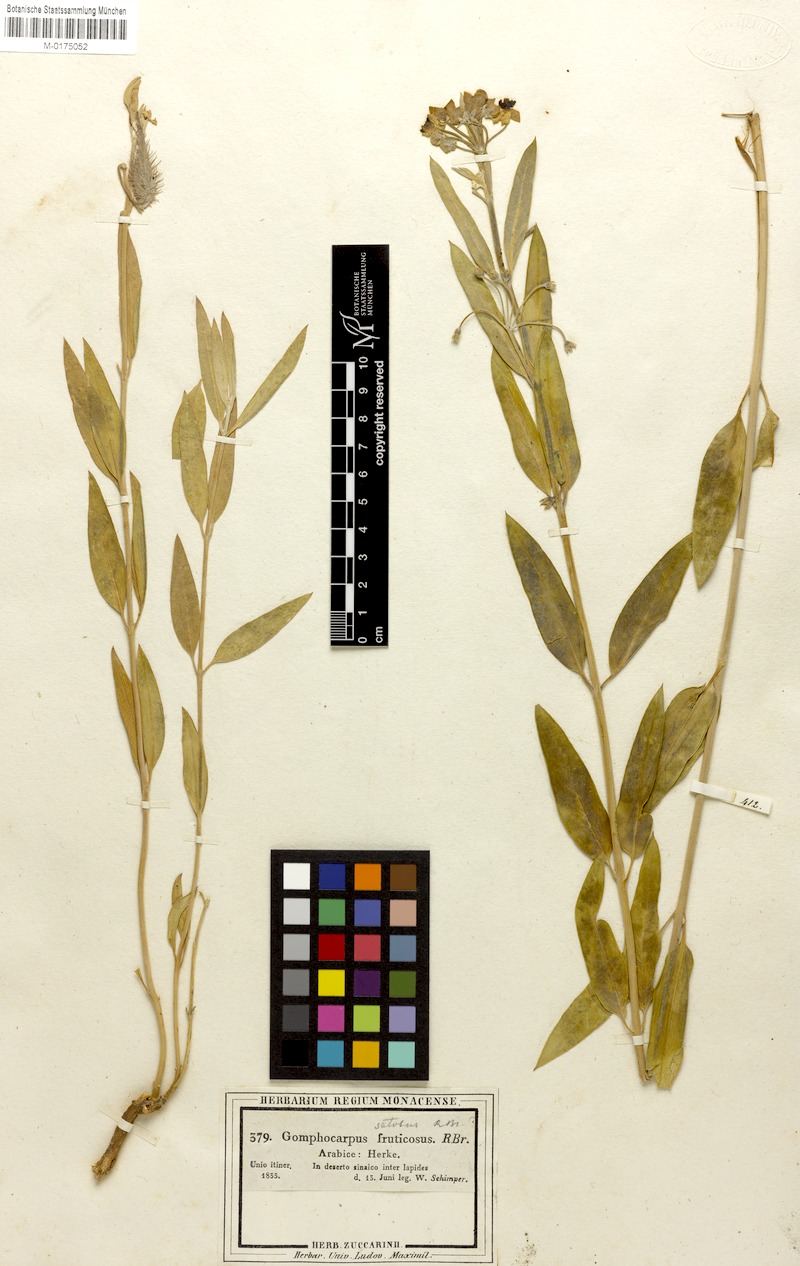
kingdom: Plantae
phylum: Tracheophyta
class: Magnoliopsida
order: Gentianales
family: Apocynaceae
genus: Gomphocarpus
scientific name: Gomphocarpus fruticosus
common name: Milkweed
